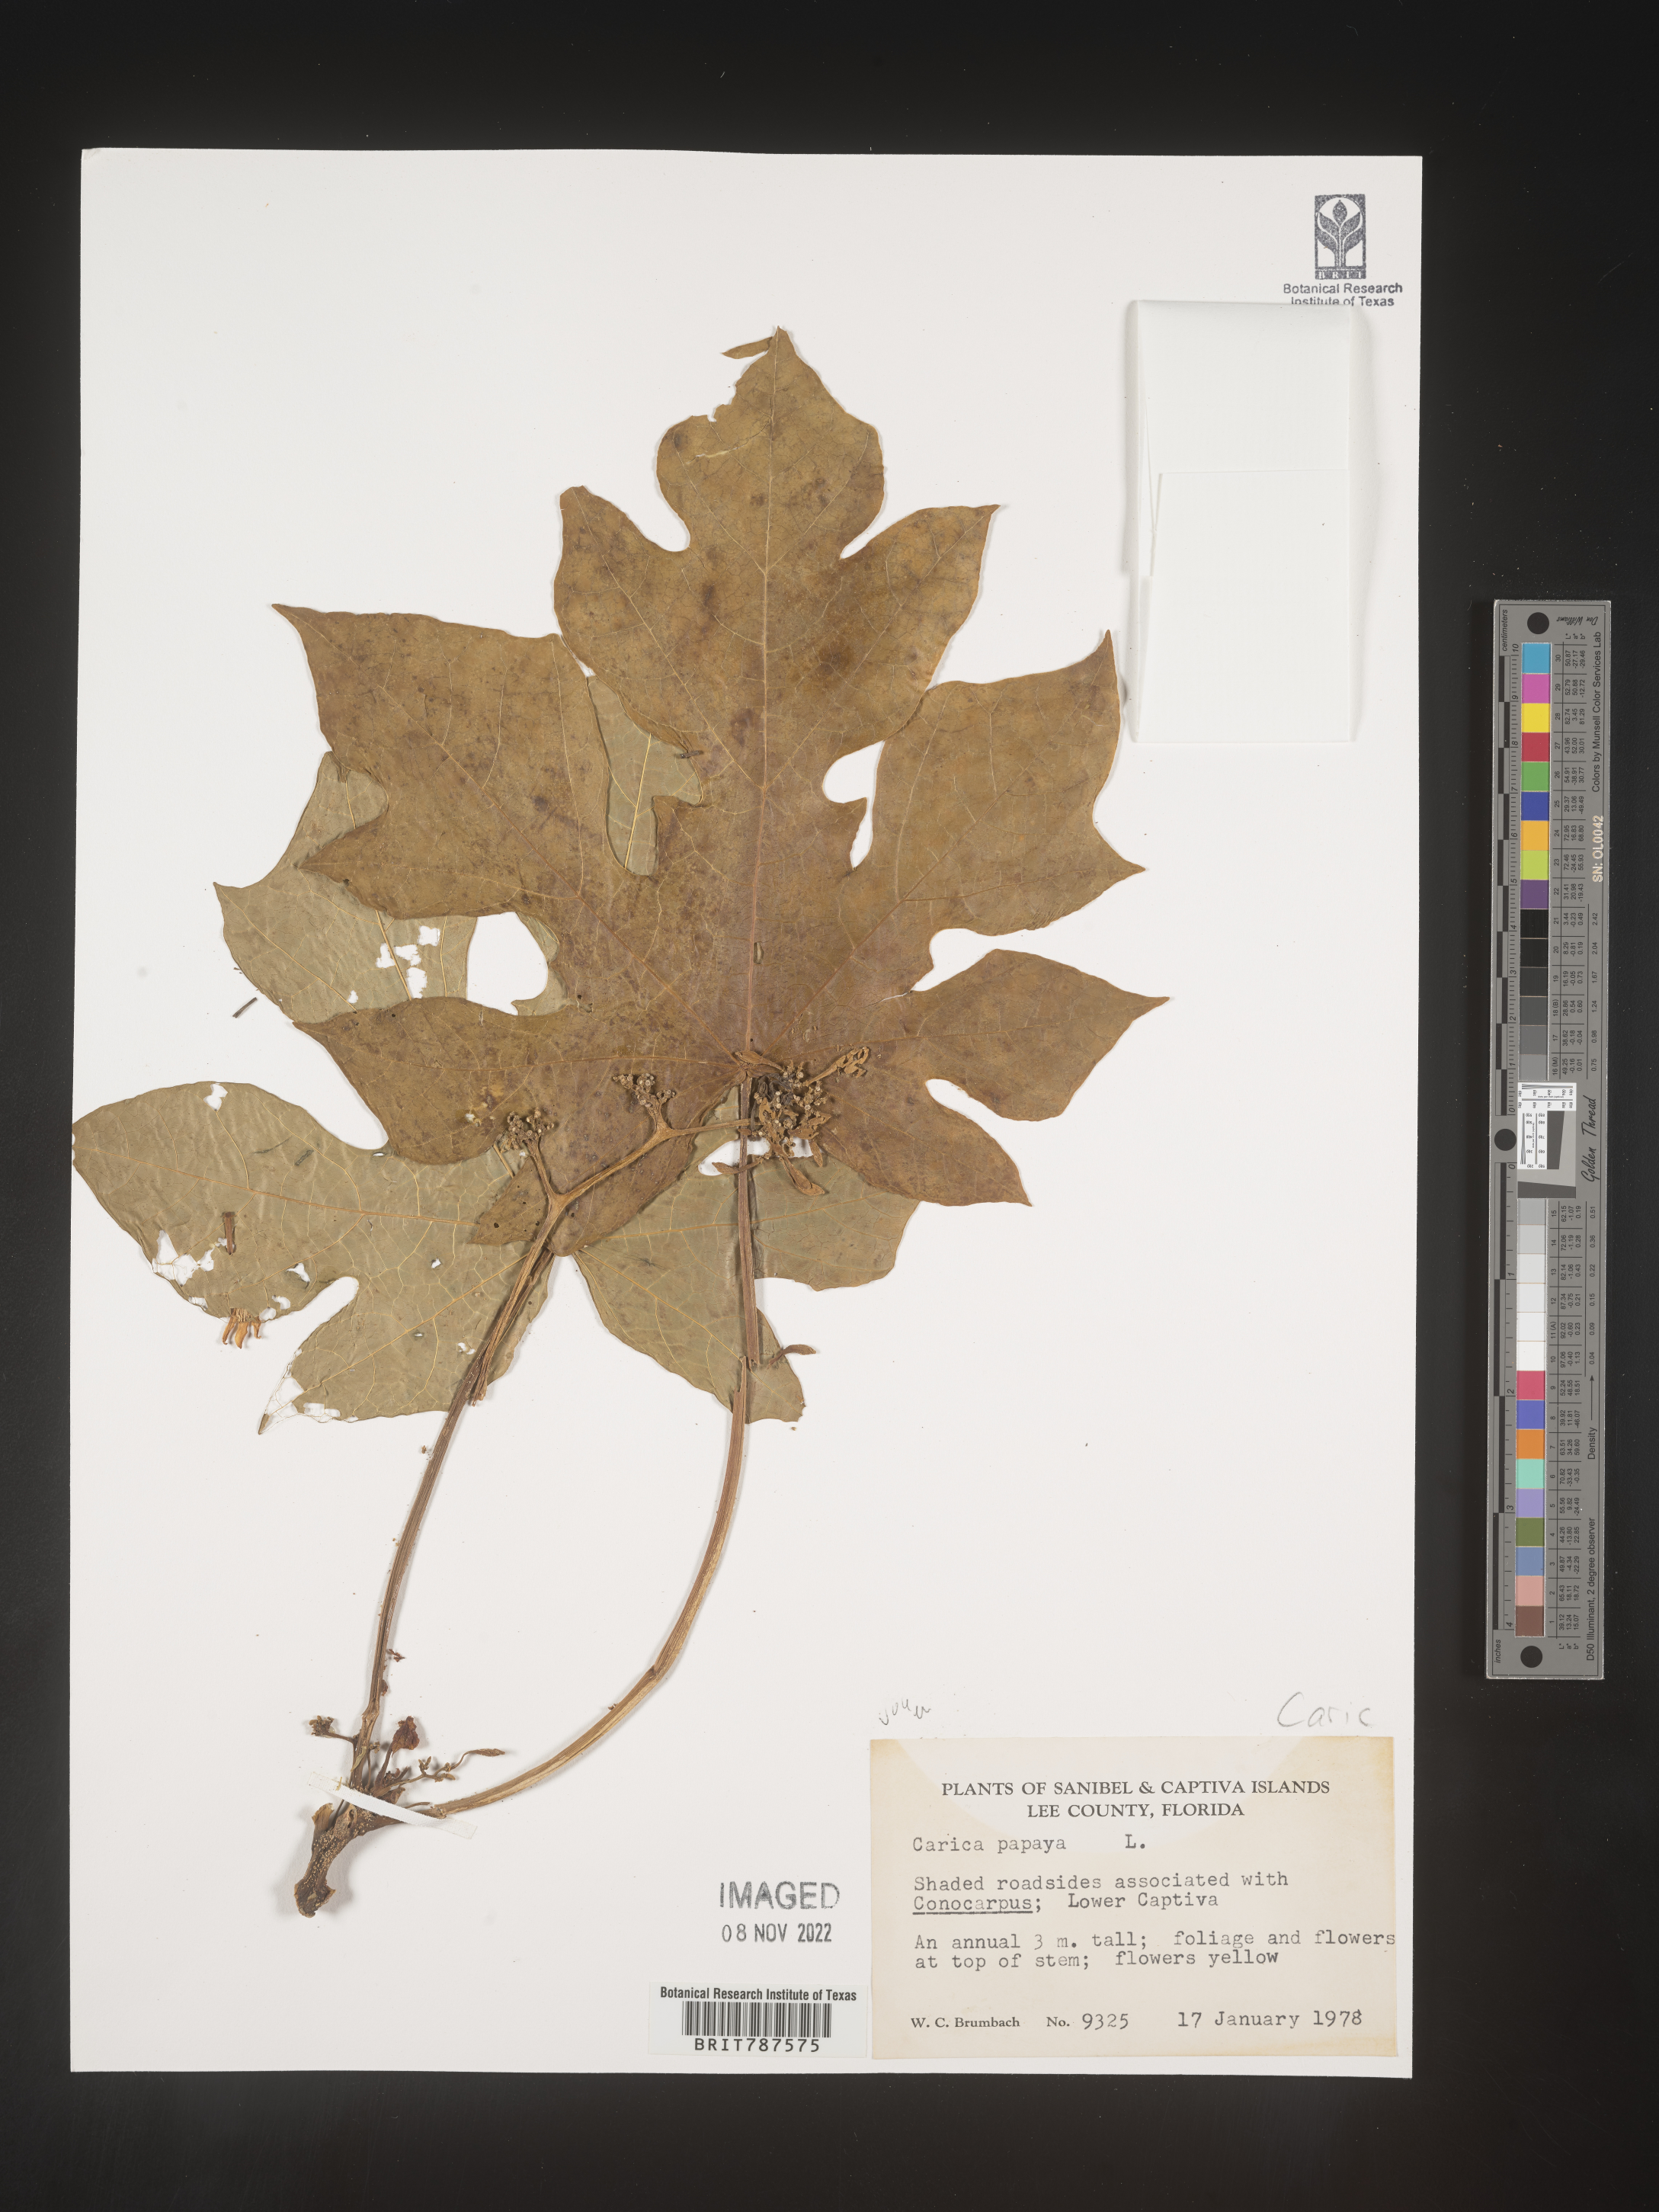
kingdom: Plantae
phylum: Tracheophyta
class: Magnoliopsida
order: Brassicales
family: Caricaceae
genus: Carica
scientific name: Carica
